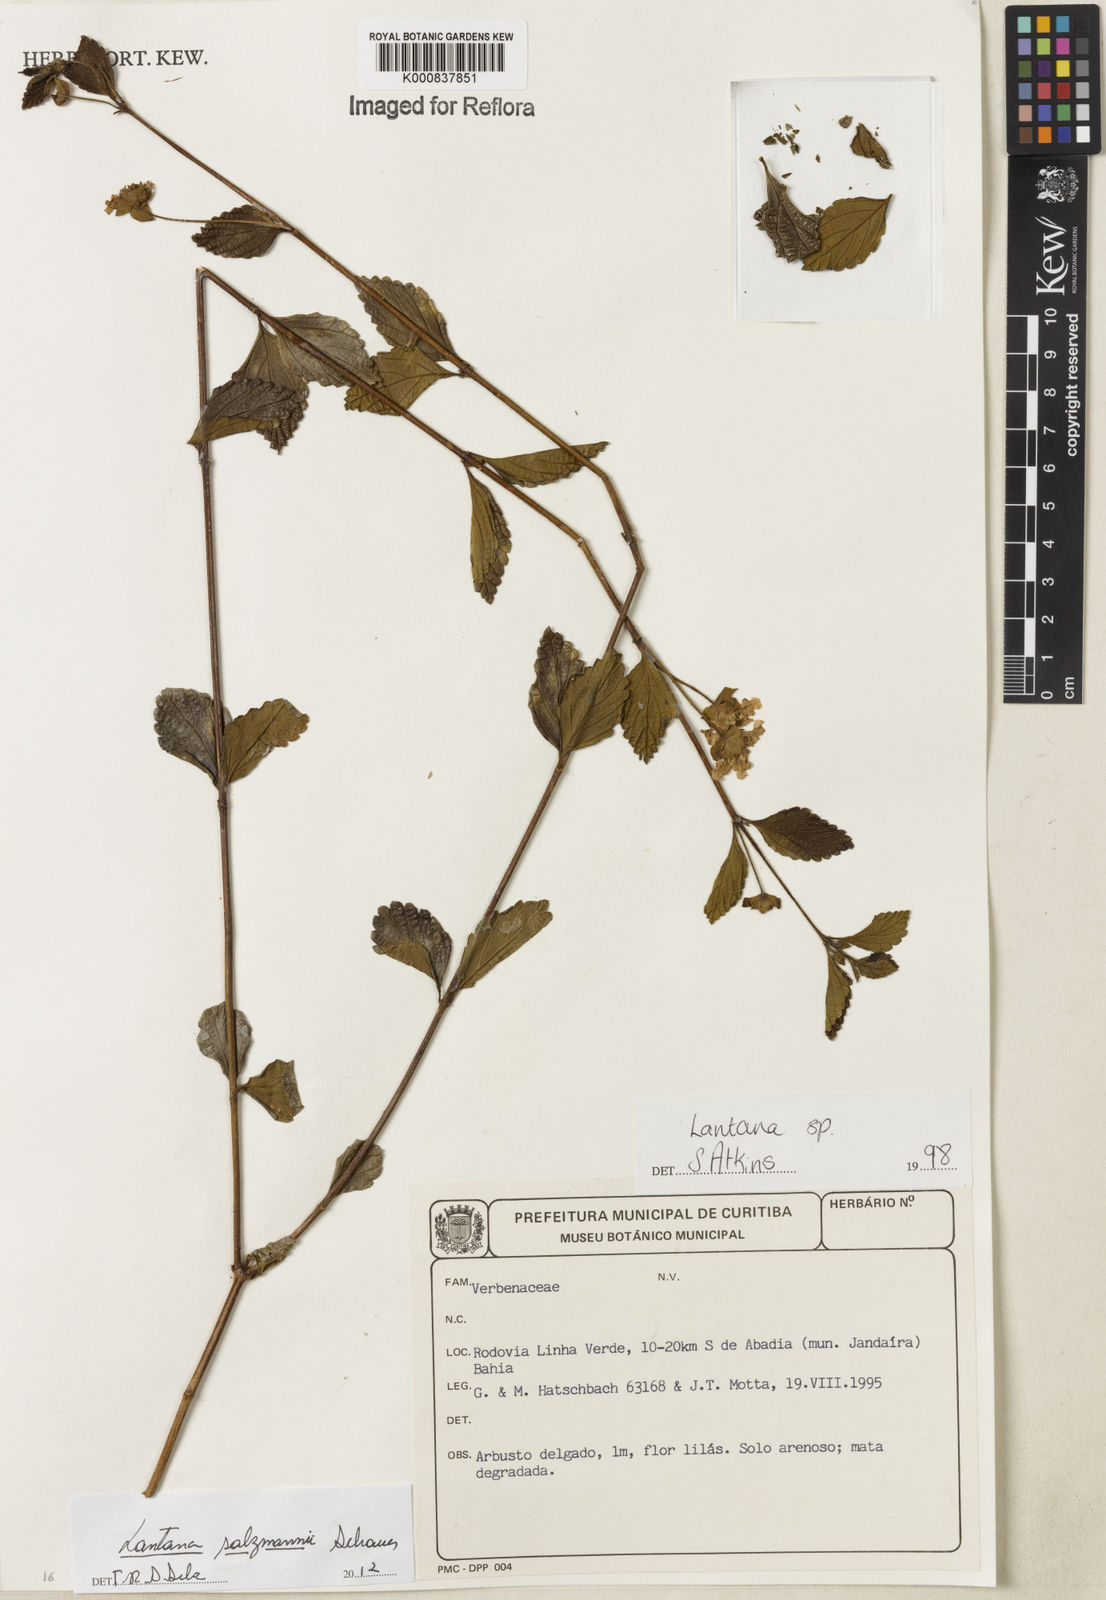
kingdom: Plantae
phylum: Tracheophyta
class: Magnoliopsida
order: Lamiales
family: Verbenaceae
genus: Lantana
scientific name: Lantana salzmannii
